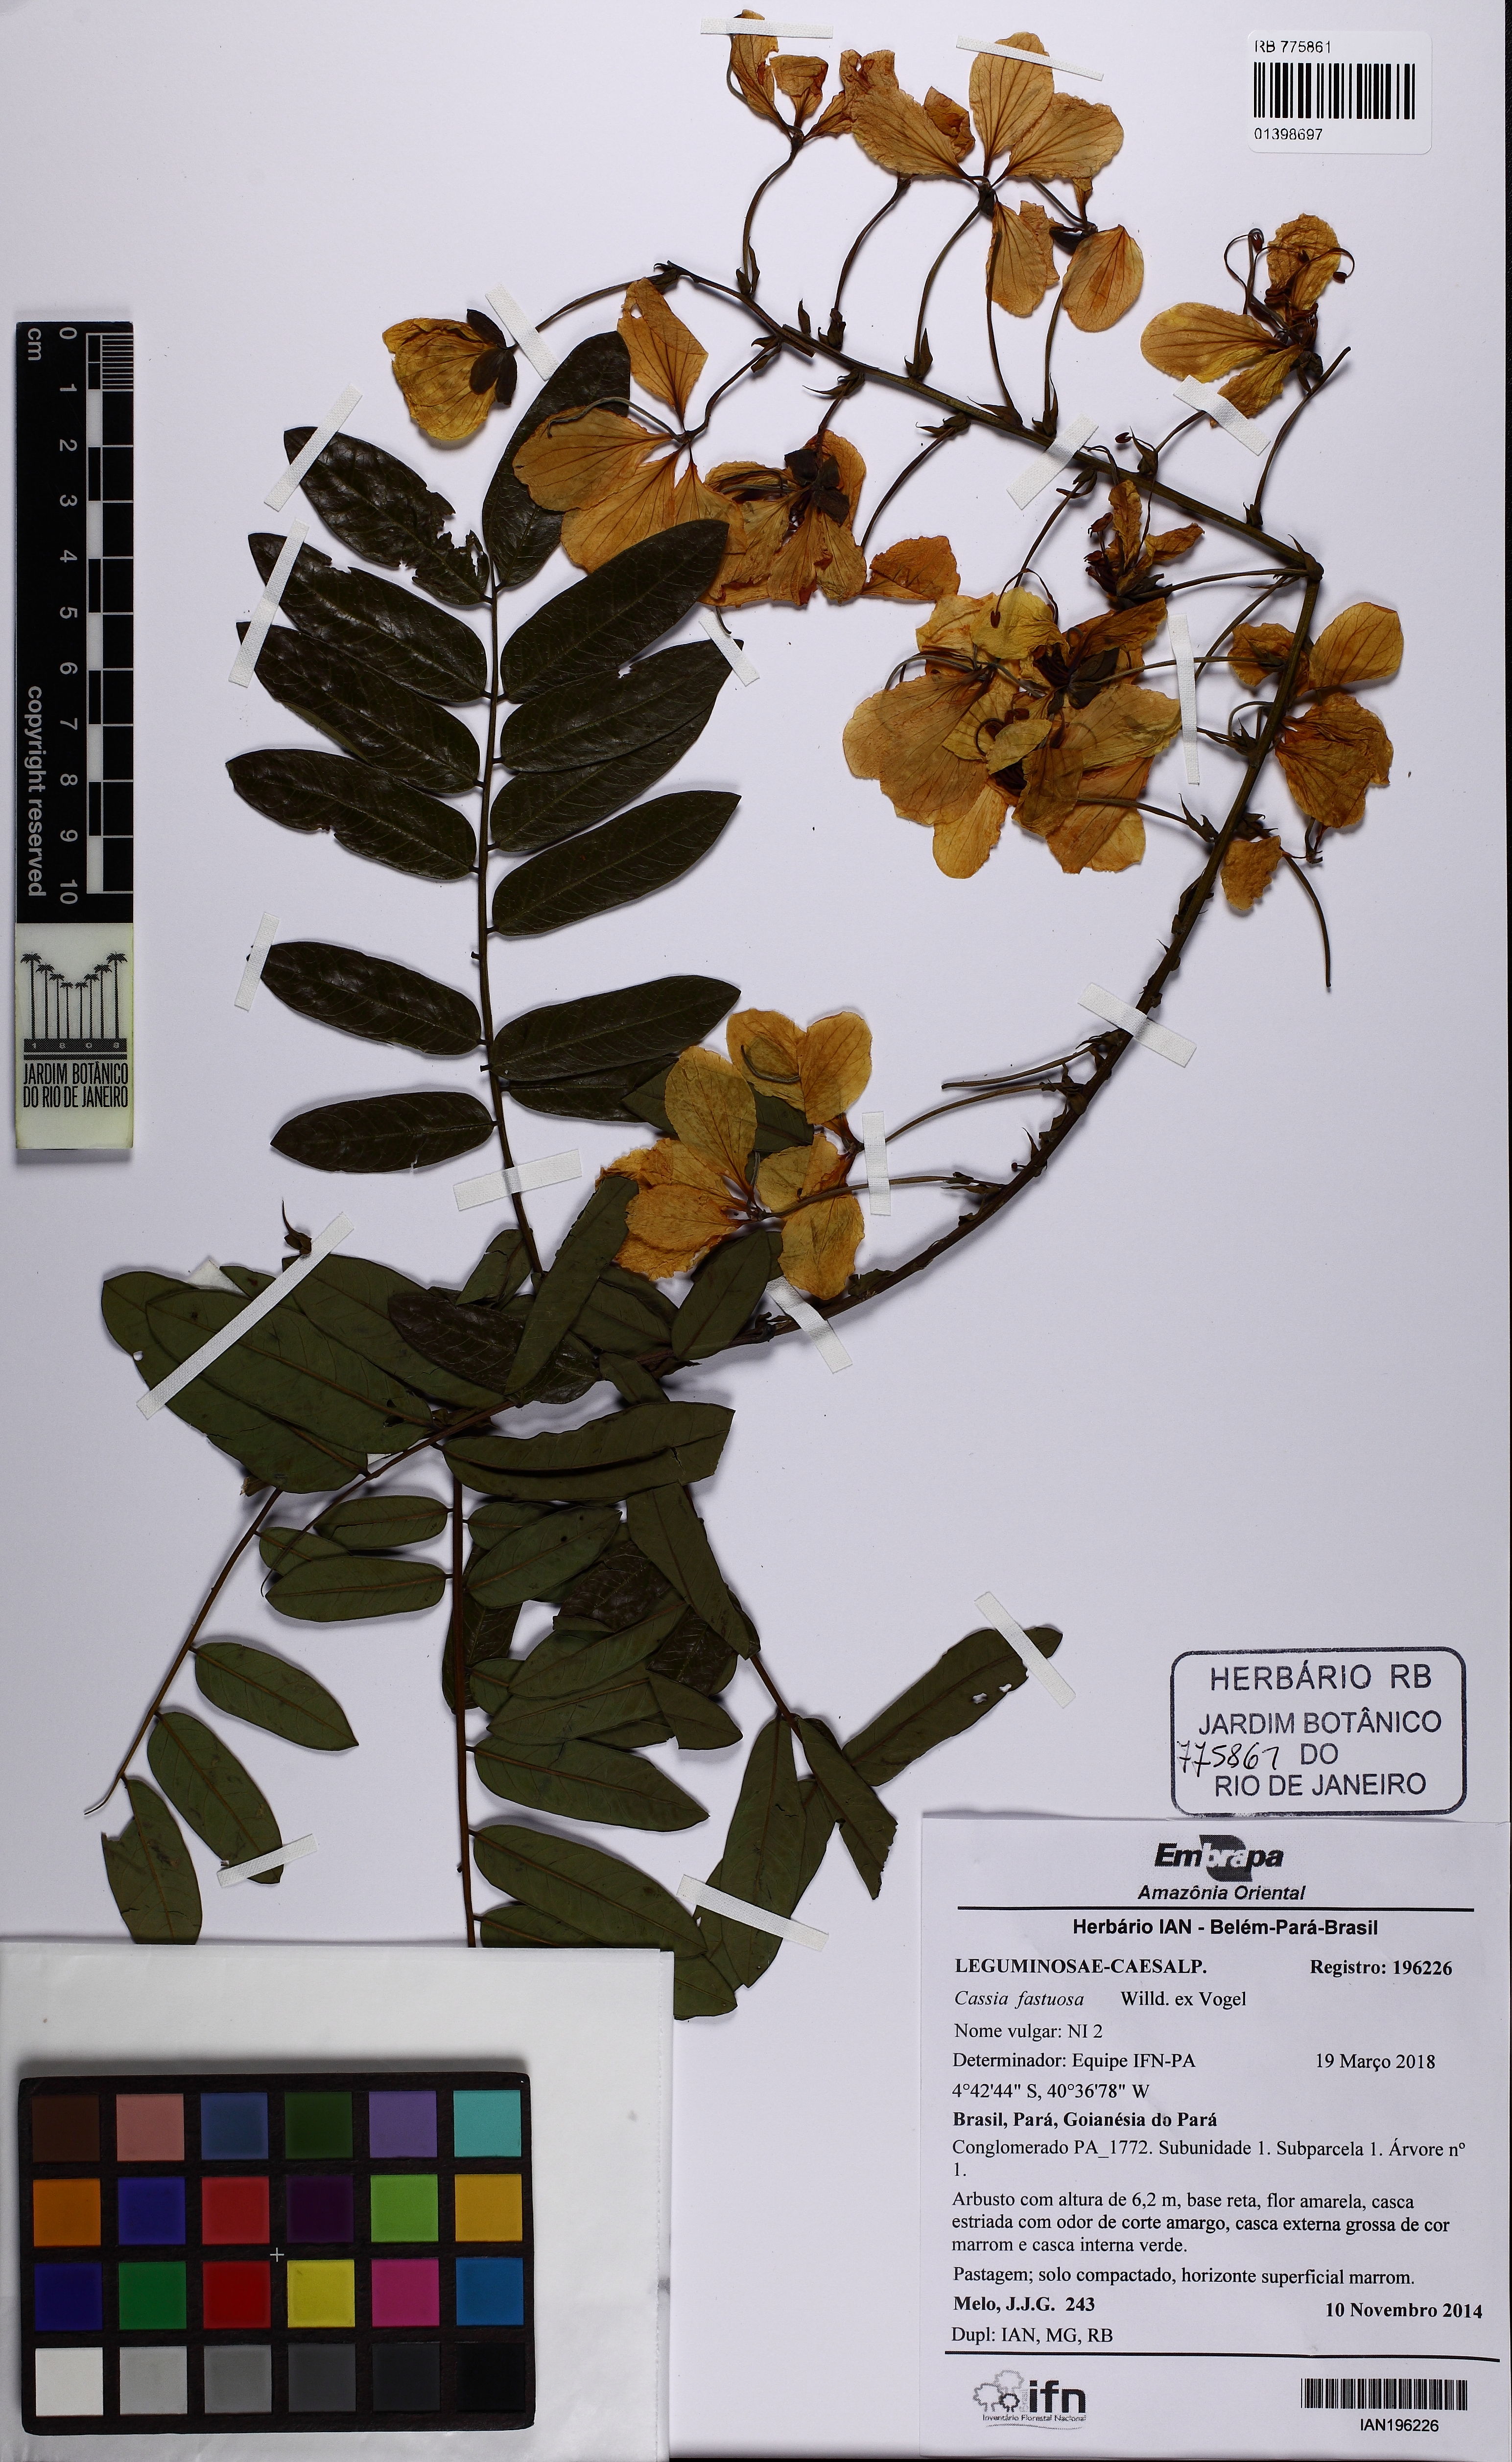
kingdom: Plantae
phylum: Tracheophyta
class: Magnoliopsida
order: Fabales
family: Fabaceae
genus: Cassia
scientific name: Cassia fastuosa
